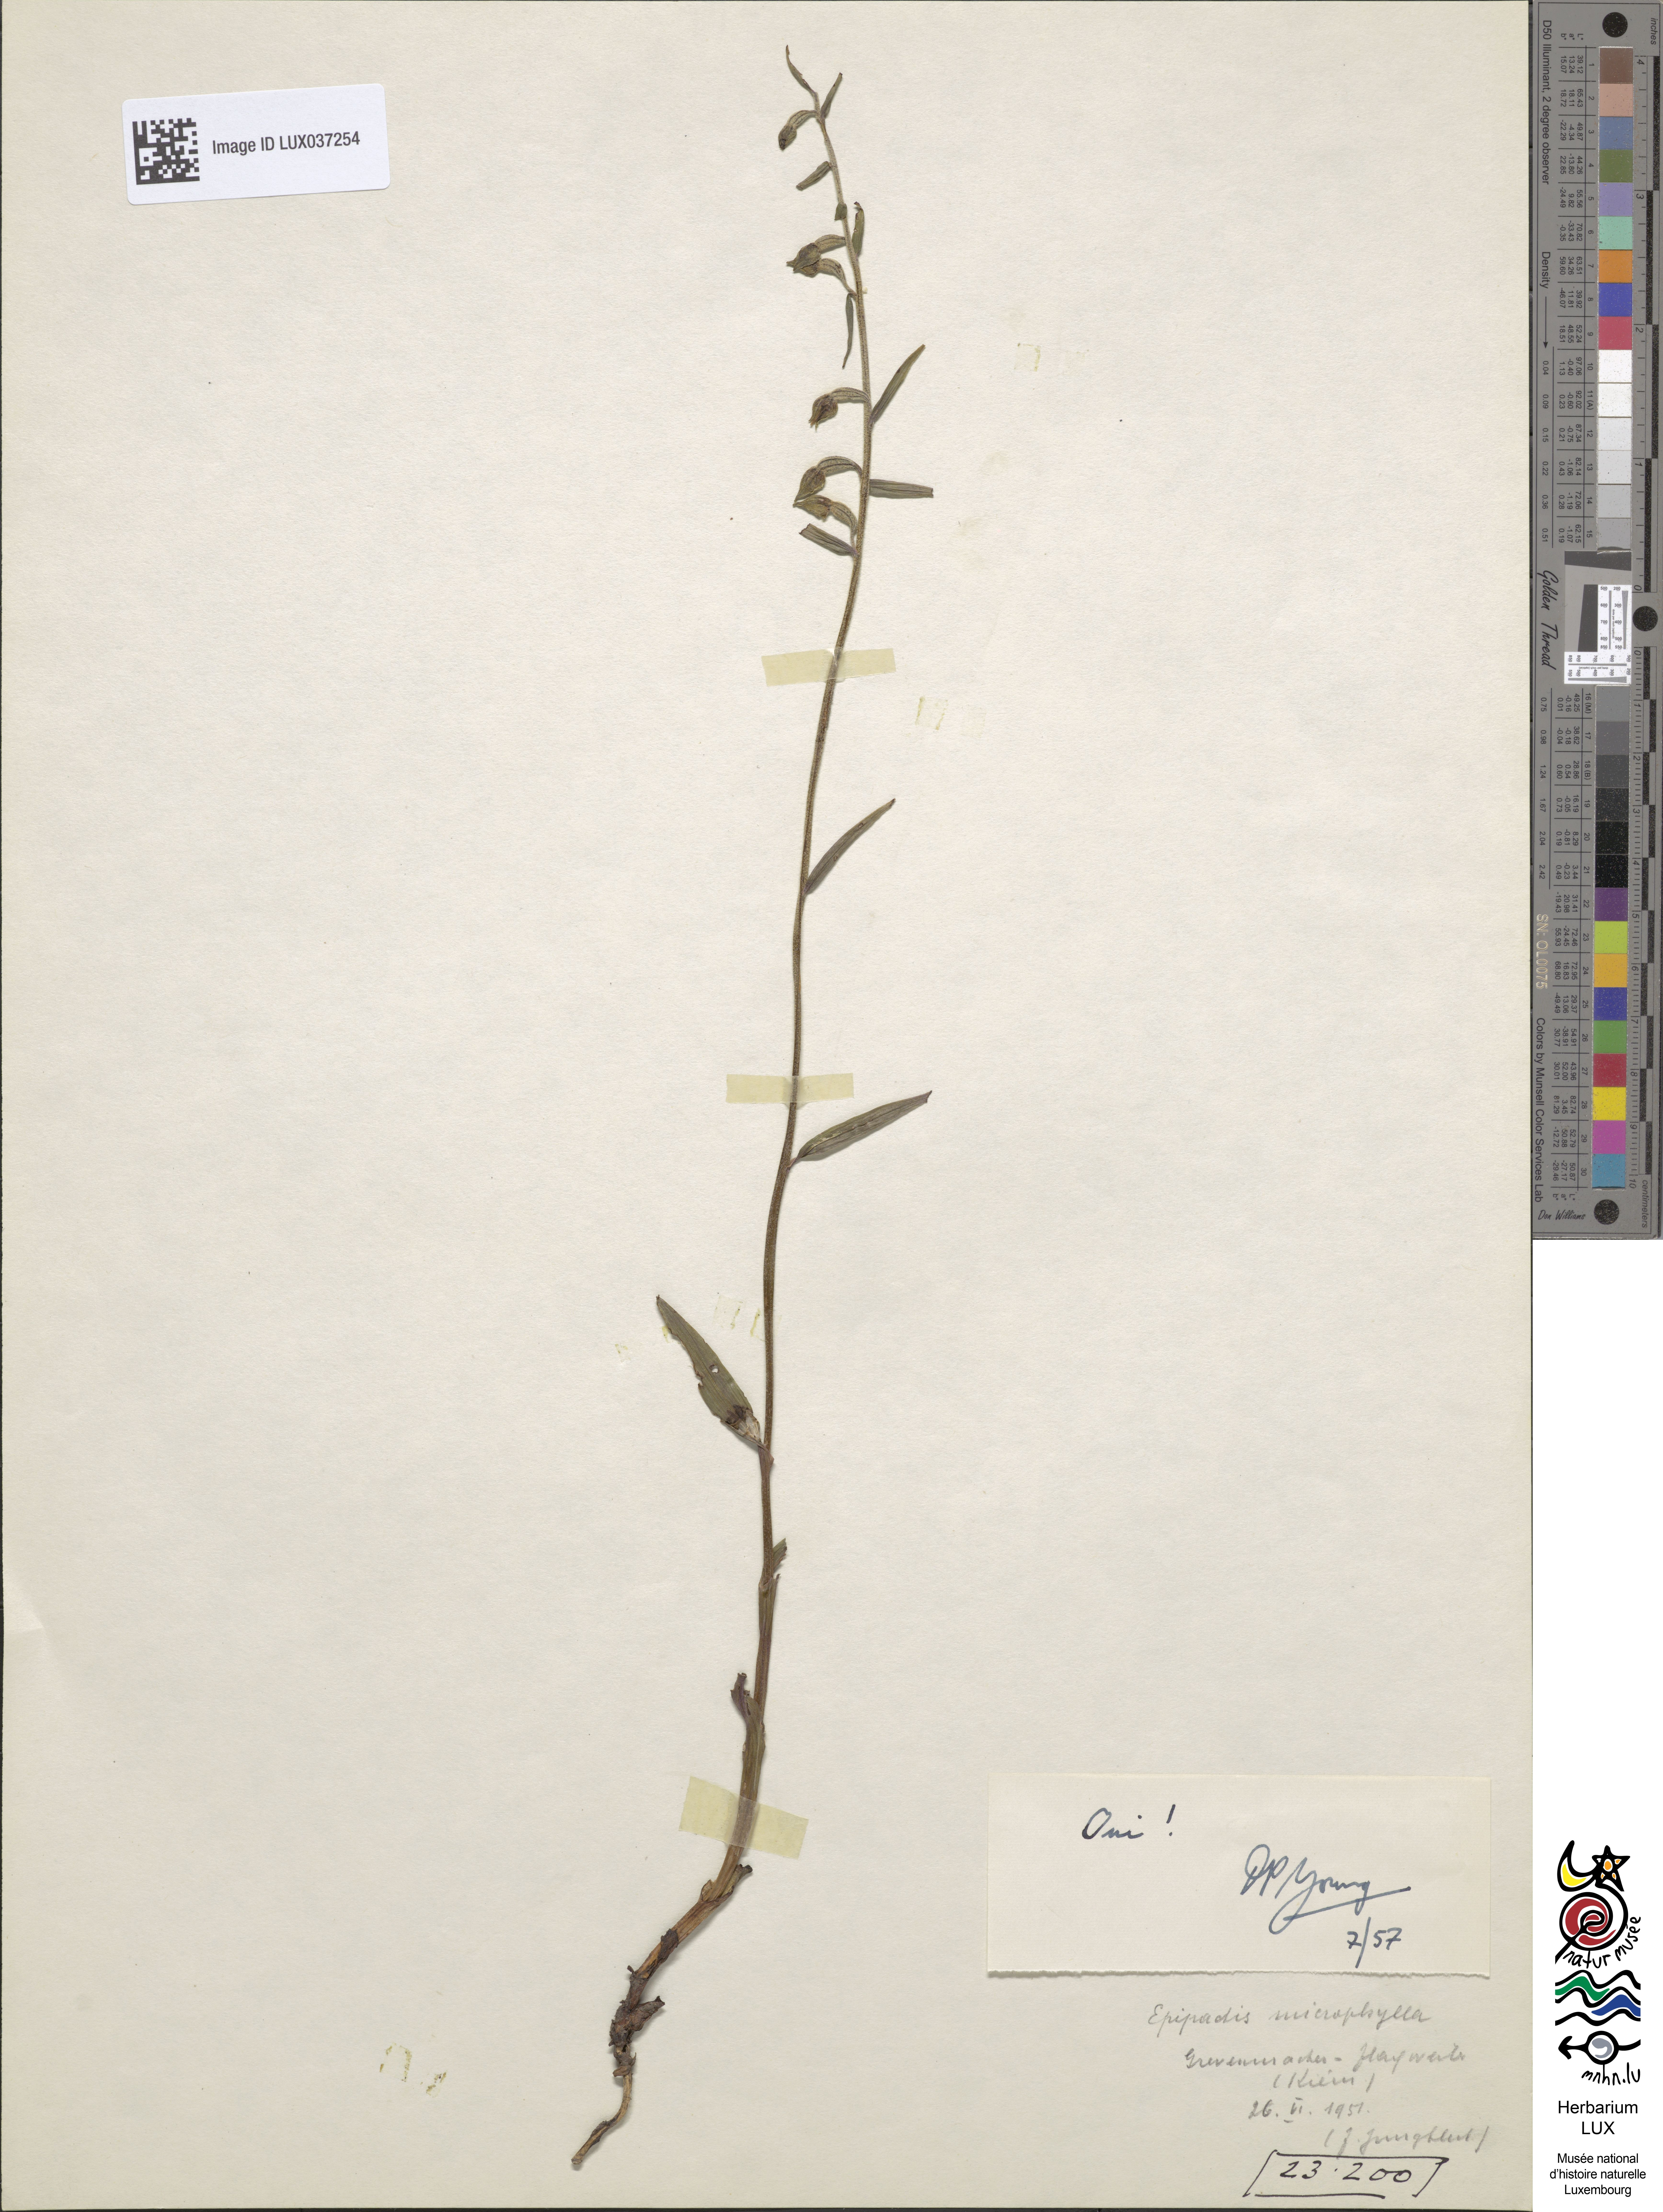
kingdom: Plantae
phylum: Tracheophyta
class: Liliopsida
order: Asparagales
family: Orchidaceae
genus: Epipactis
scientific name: Epipactis microphylla
